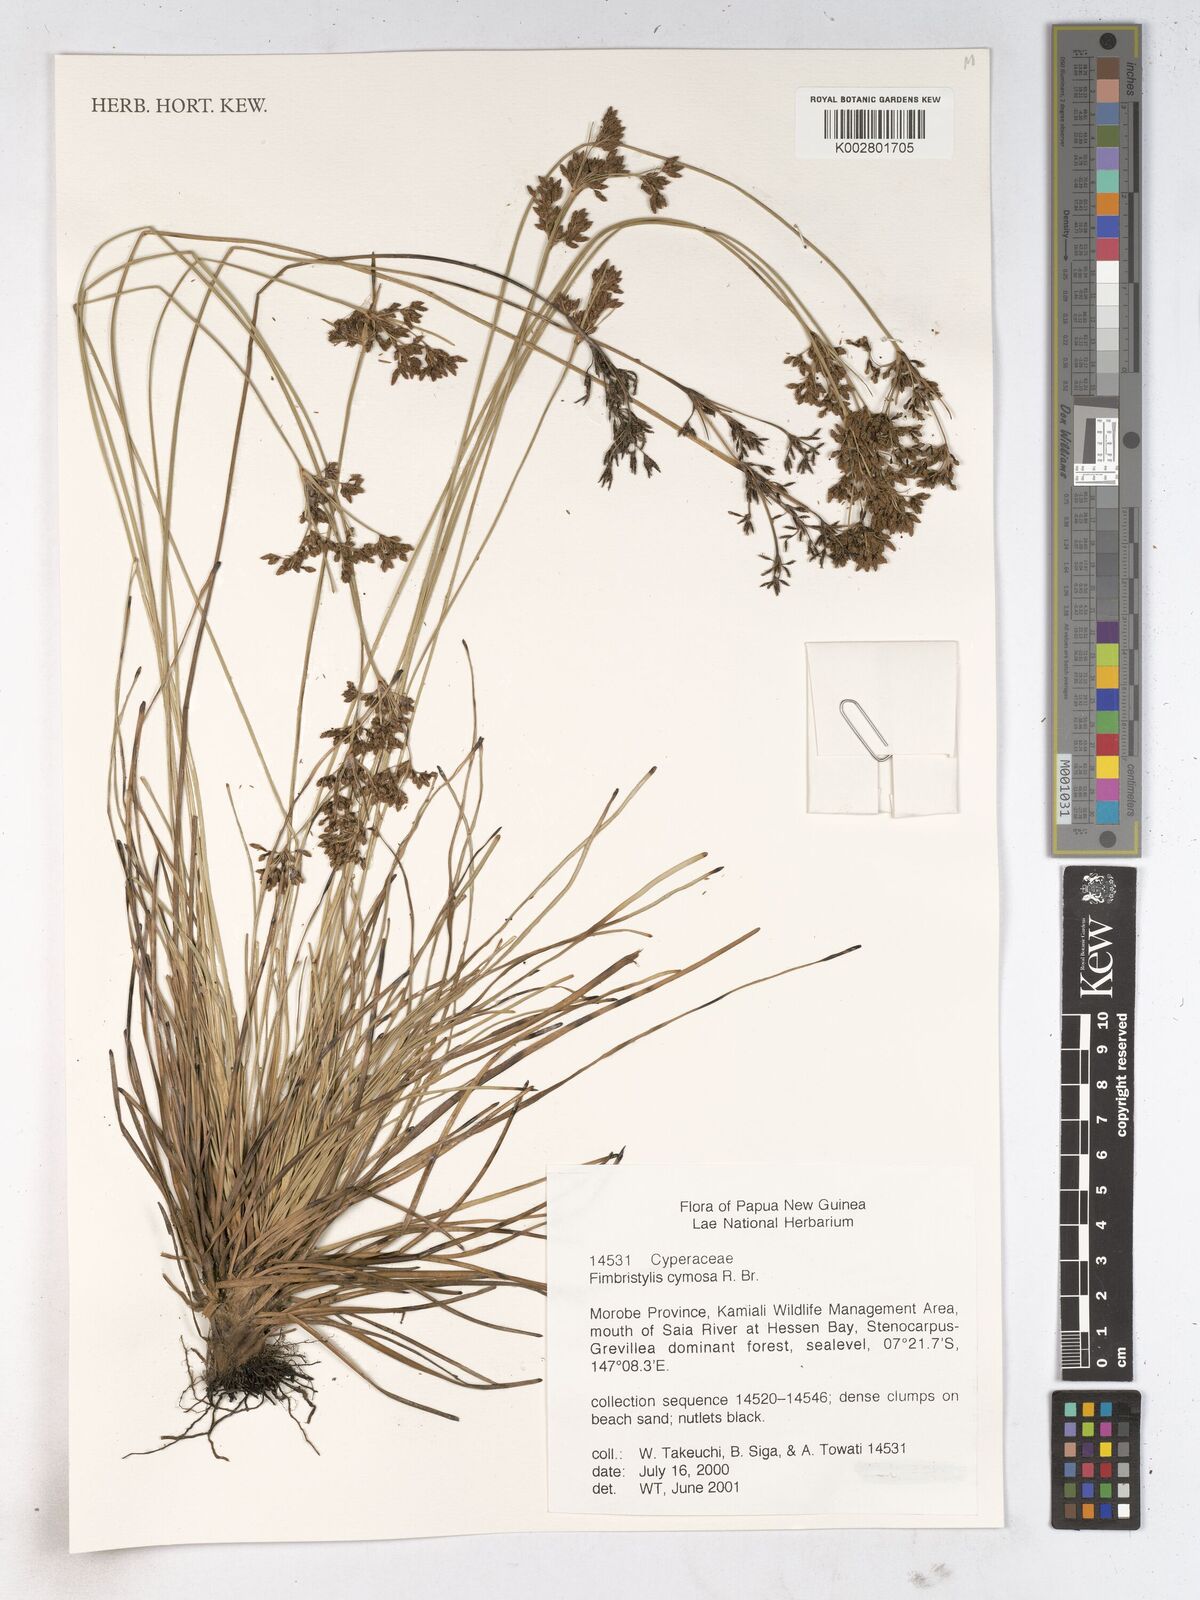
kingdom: Plantae
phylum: Tracheophyta
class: Liliopsida
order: Poales
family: Cyperaceae
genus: Fimbristylis
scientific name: Fimbristylis cymosa
